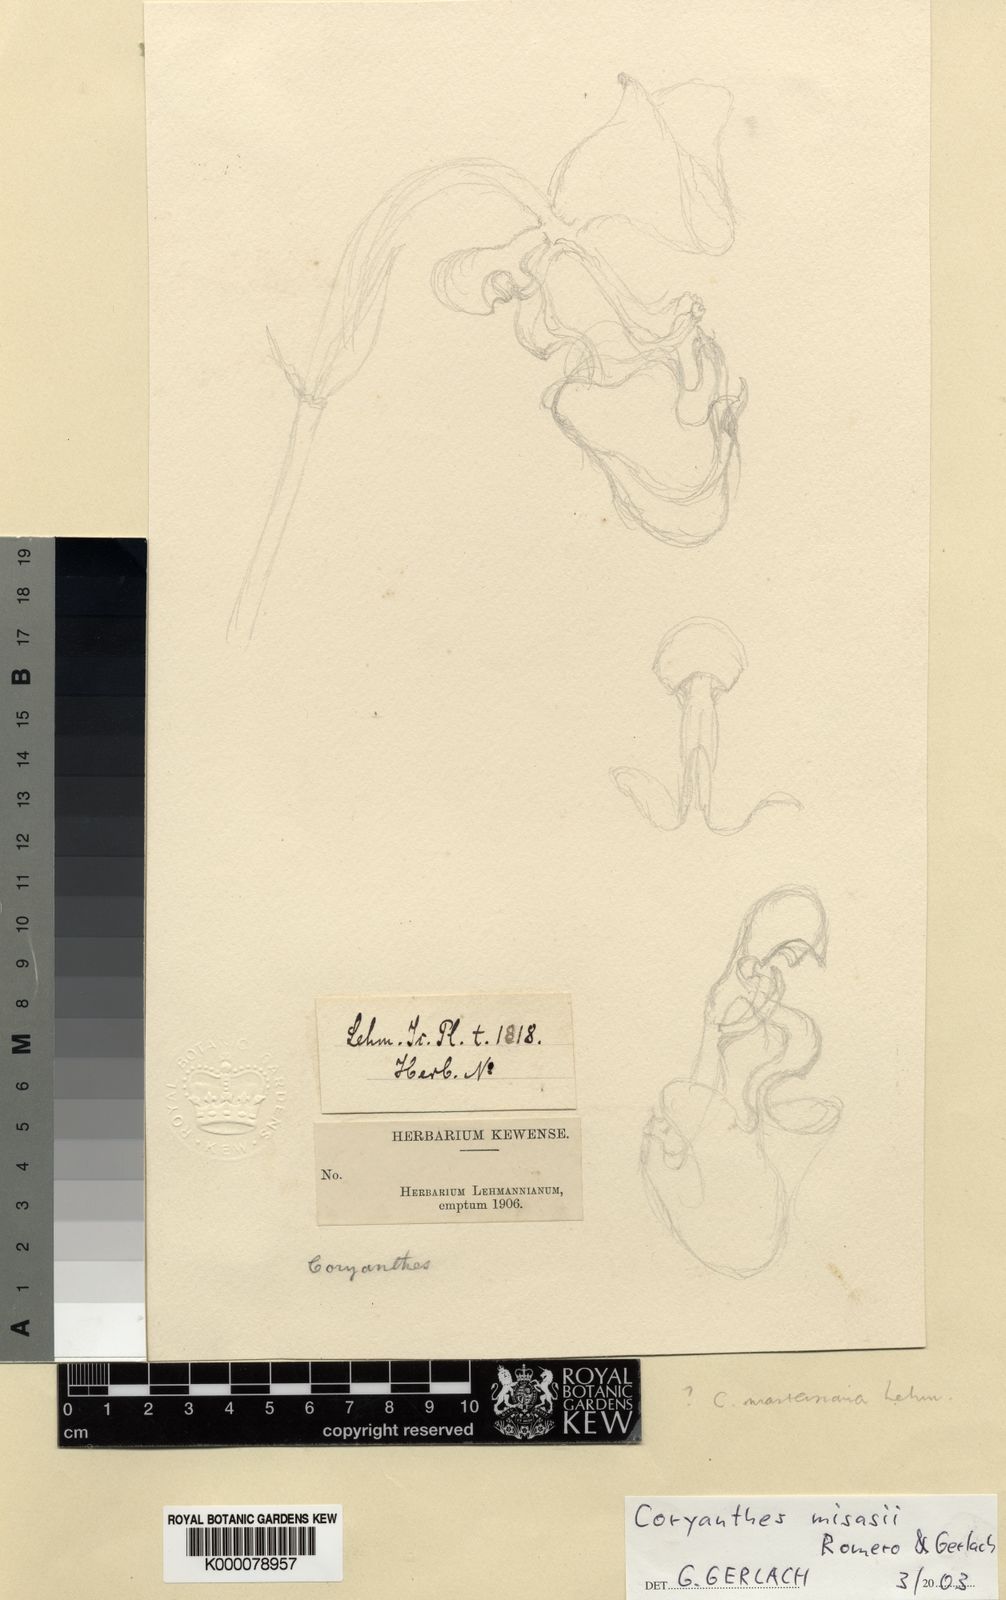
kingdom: Plantae
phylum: Tracheophyta
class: Liliopsida
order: Asparagales
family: Orchidaceae
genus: Coryanthes
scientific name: Coryanthes misasii
